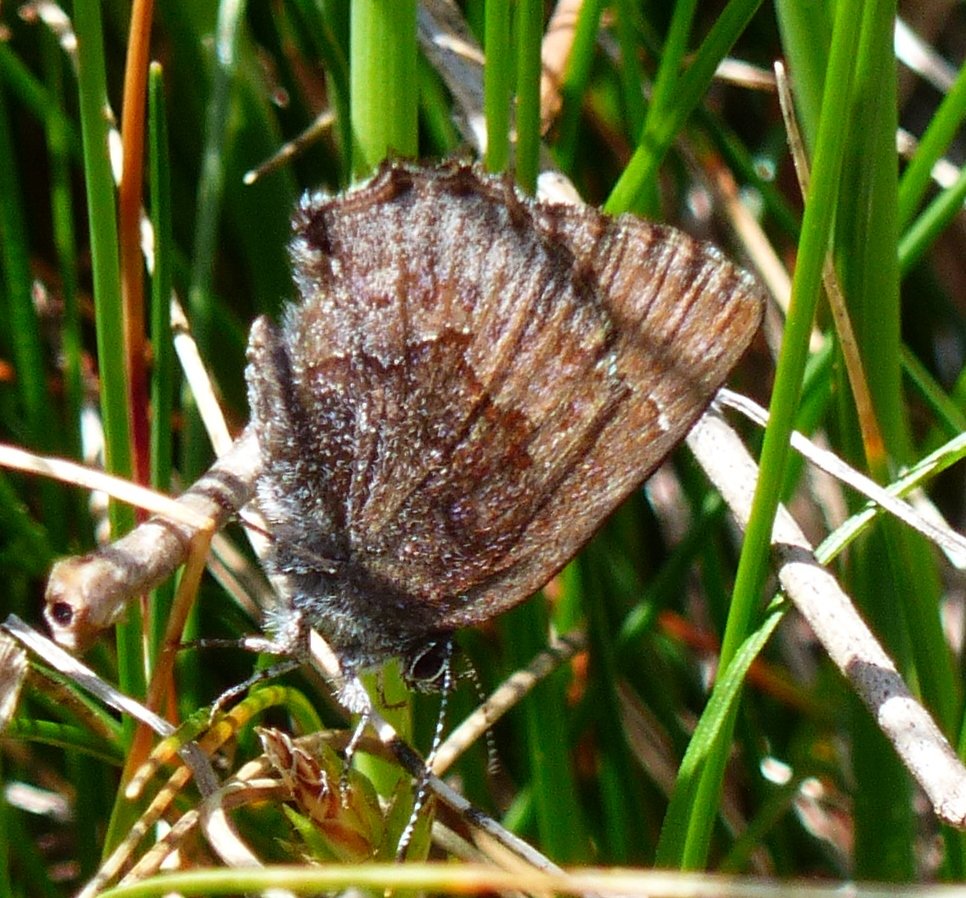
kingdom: Animalia
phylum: Arthropoda
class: Insecta
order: Lepidoptera
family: Lycaenidae
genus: Callophrys
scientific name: Callophrys polios
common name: Hoary Elfin
